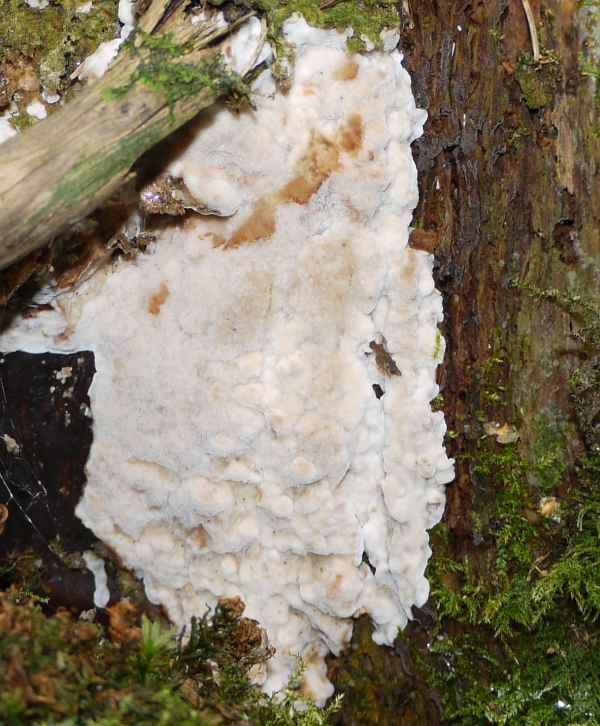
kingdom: Fungi
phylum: Basidiomycota
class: Agaricomycetes
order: Polyporales
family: Meruliaceae
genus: Physisporinus
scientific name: Physisporinus vitreus
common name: mastesvamp
